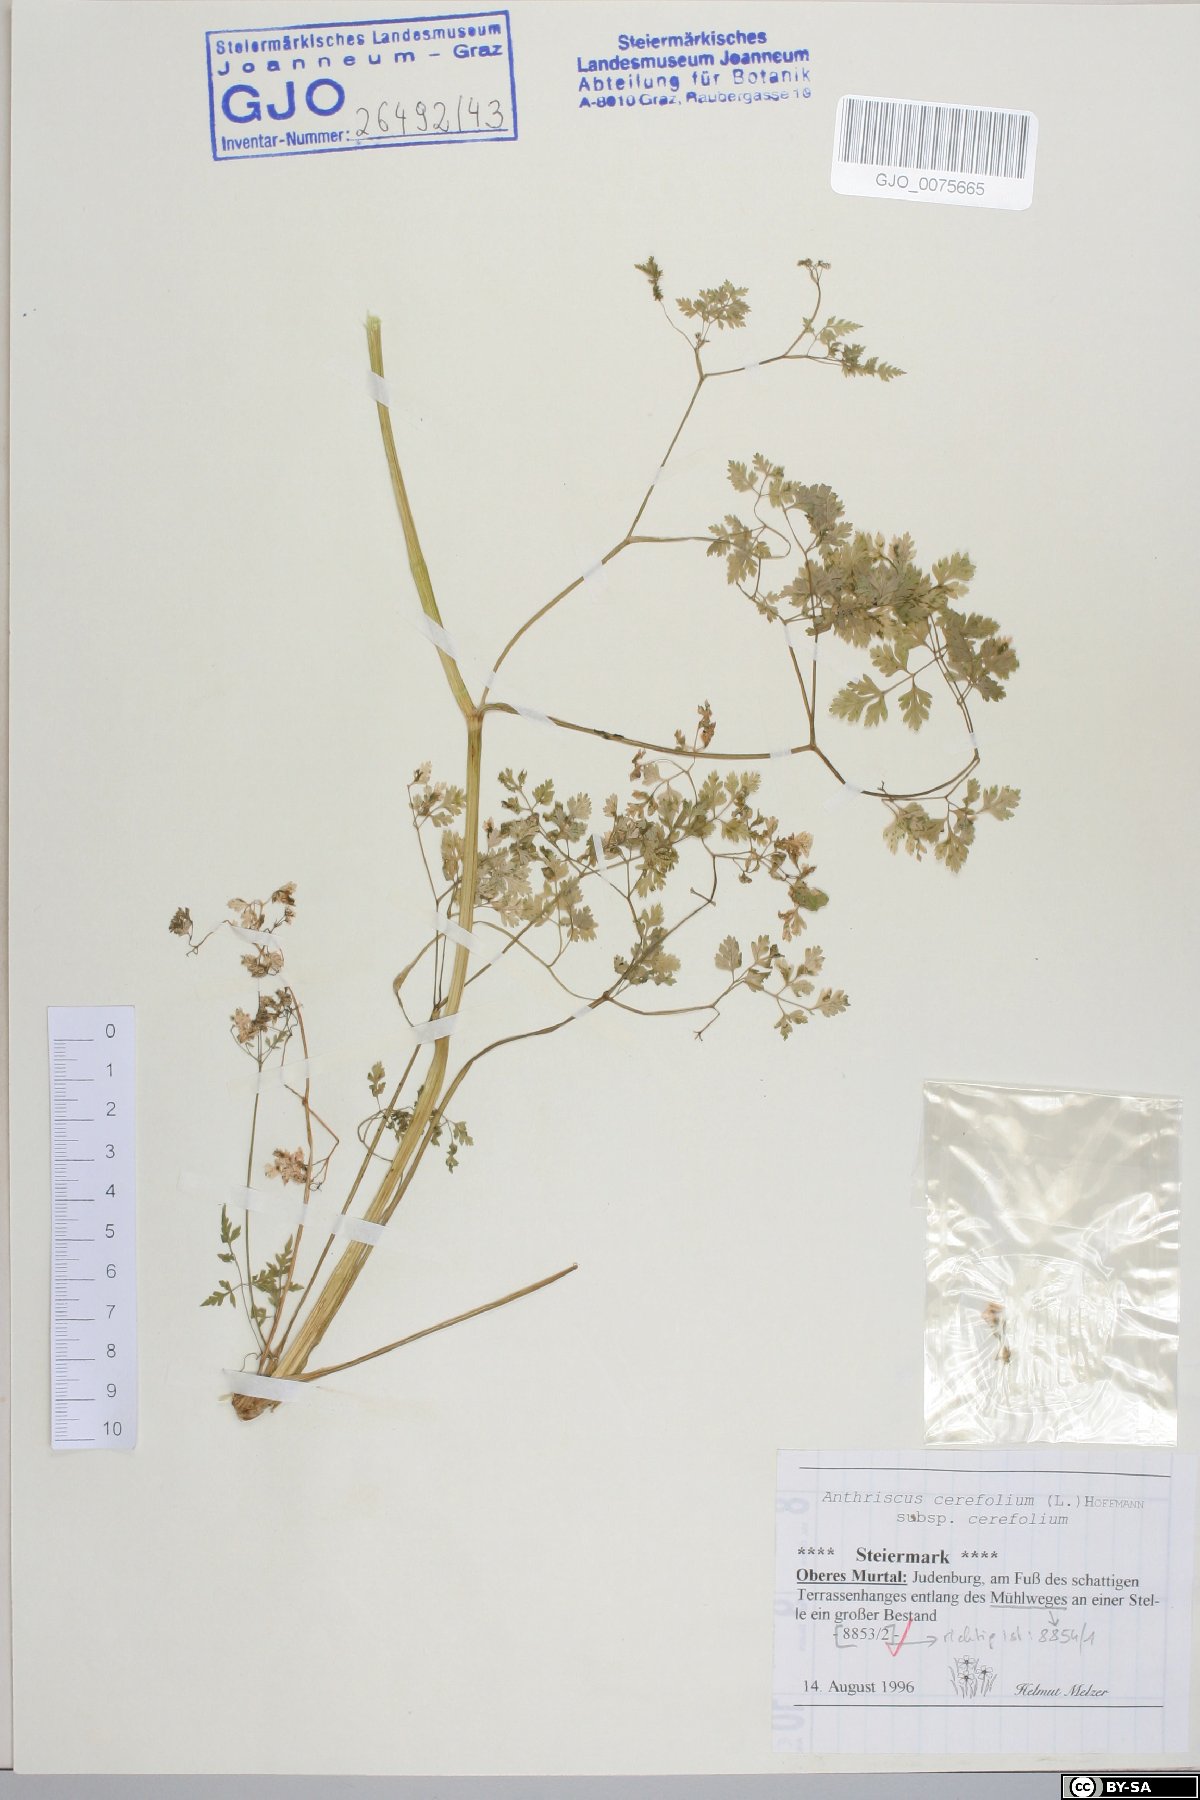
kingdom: Plantae
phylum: Tracheophyta
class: Magnoliopsida
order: Apiales
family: Apiaceae
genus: Anthriscus
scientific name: Anthriscus cerefolium
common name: Garden chervil
